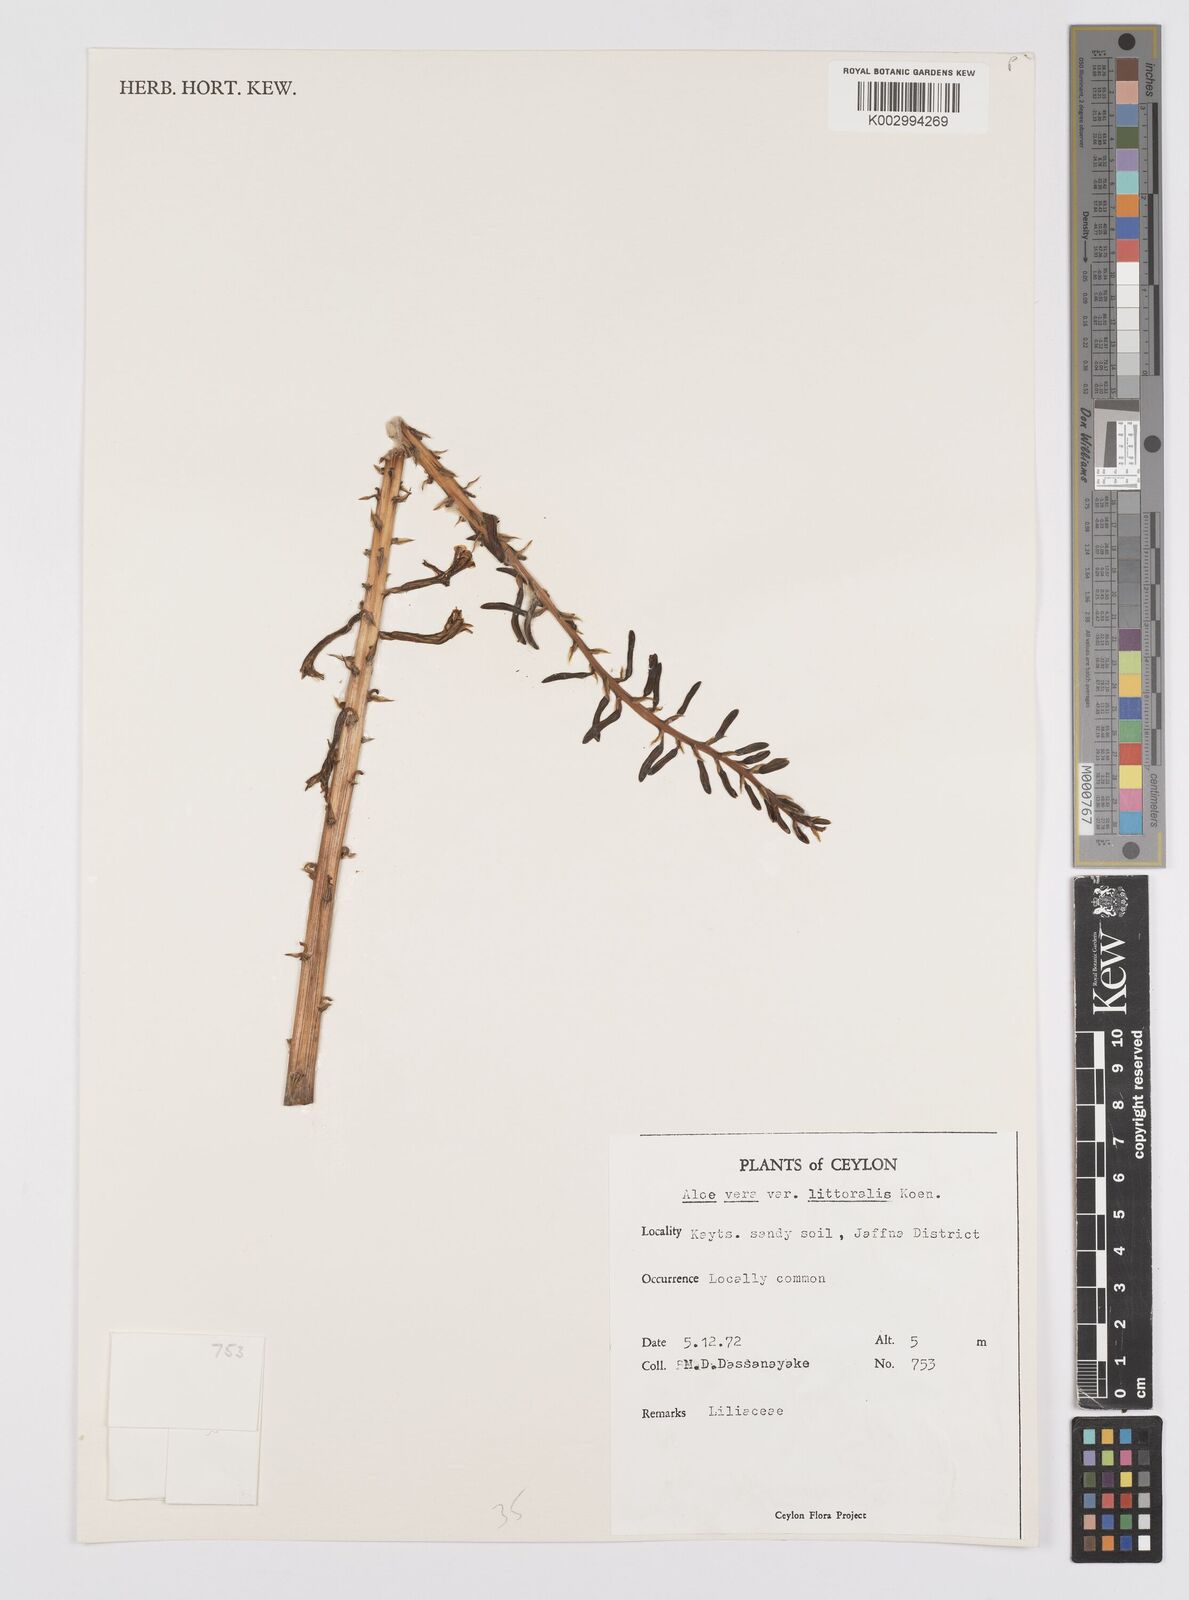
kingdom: Plantae
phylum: Tracheophyta
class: Liliopsida
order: Asparagales
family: Asphodelaceae
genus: Aloe
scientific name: Aloe vera
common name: Barbados aloe
